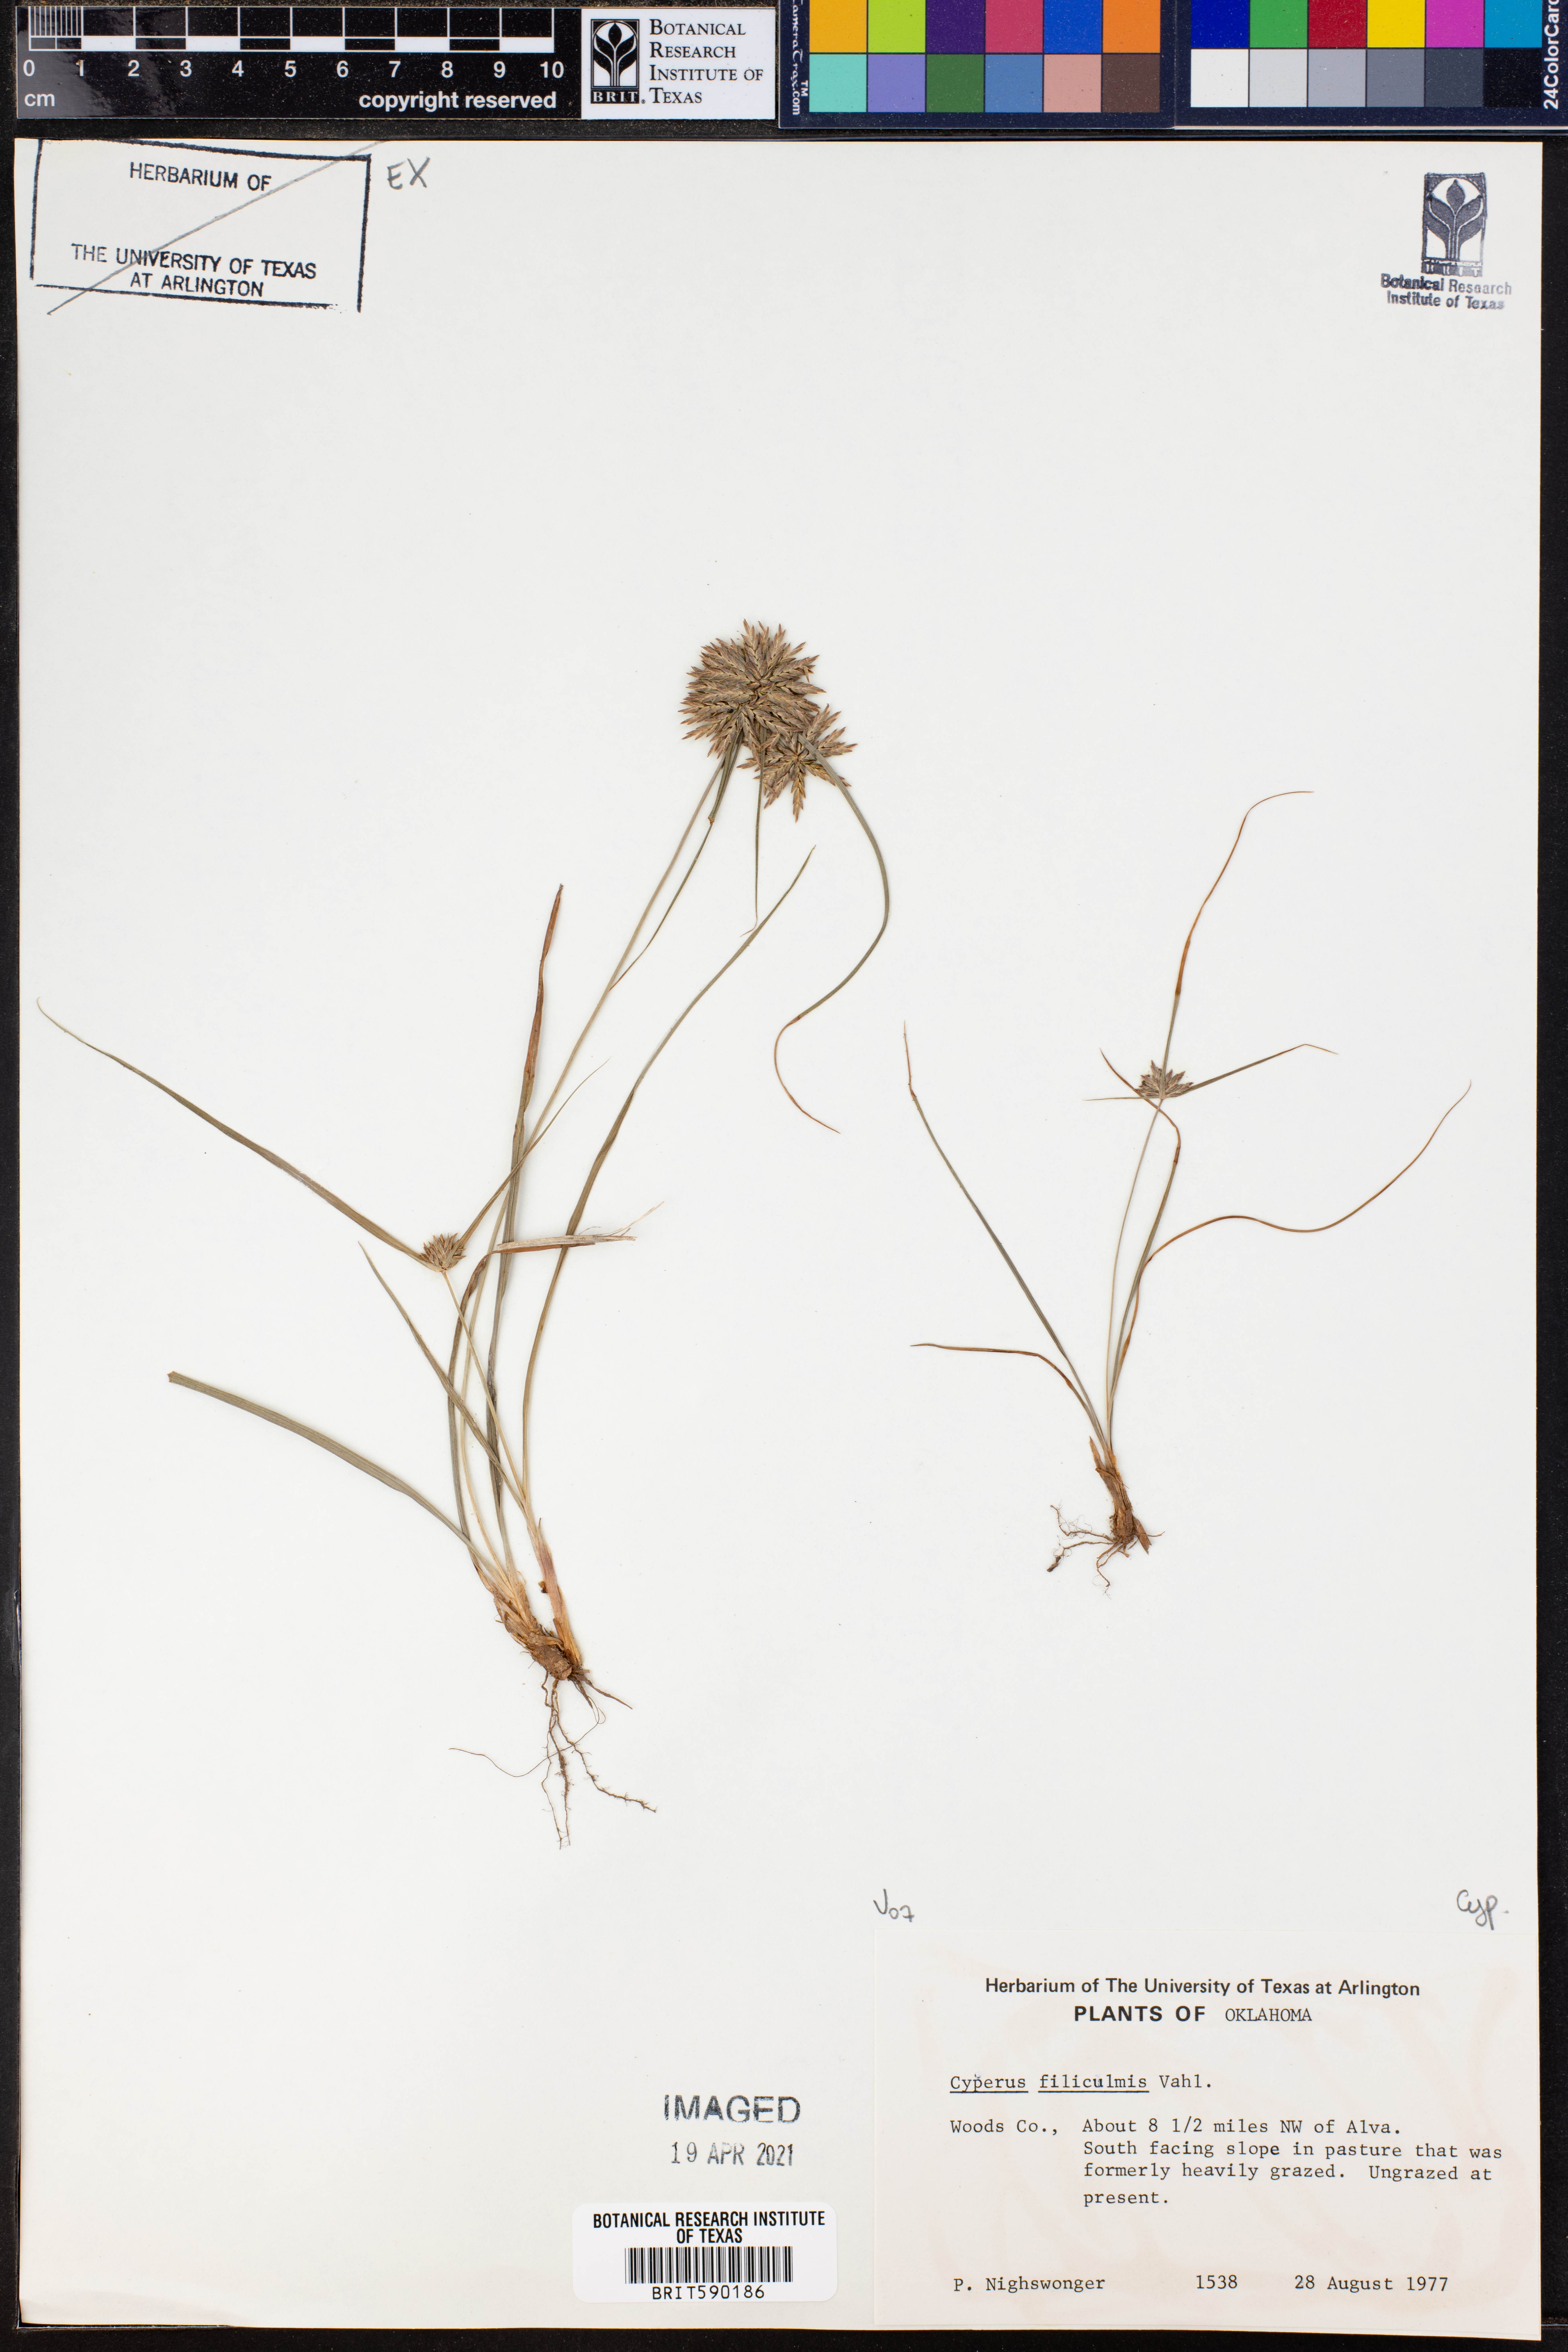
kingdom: Plantae
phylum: Tracheophyta
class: Liliopsida
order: Poales
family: Cyperaceae
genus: Cyperus
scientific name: Cyperus lanceolatus
